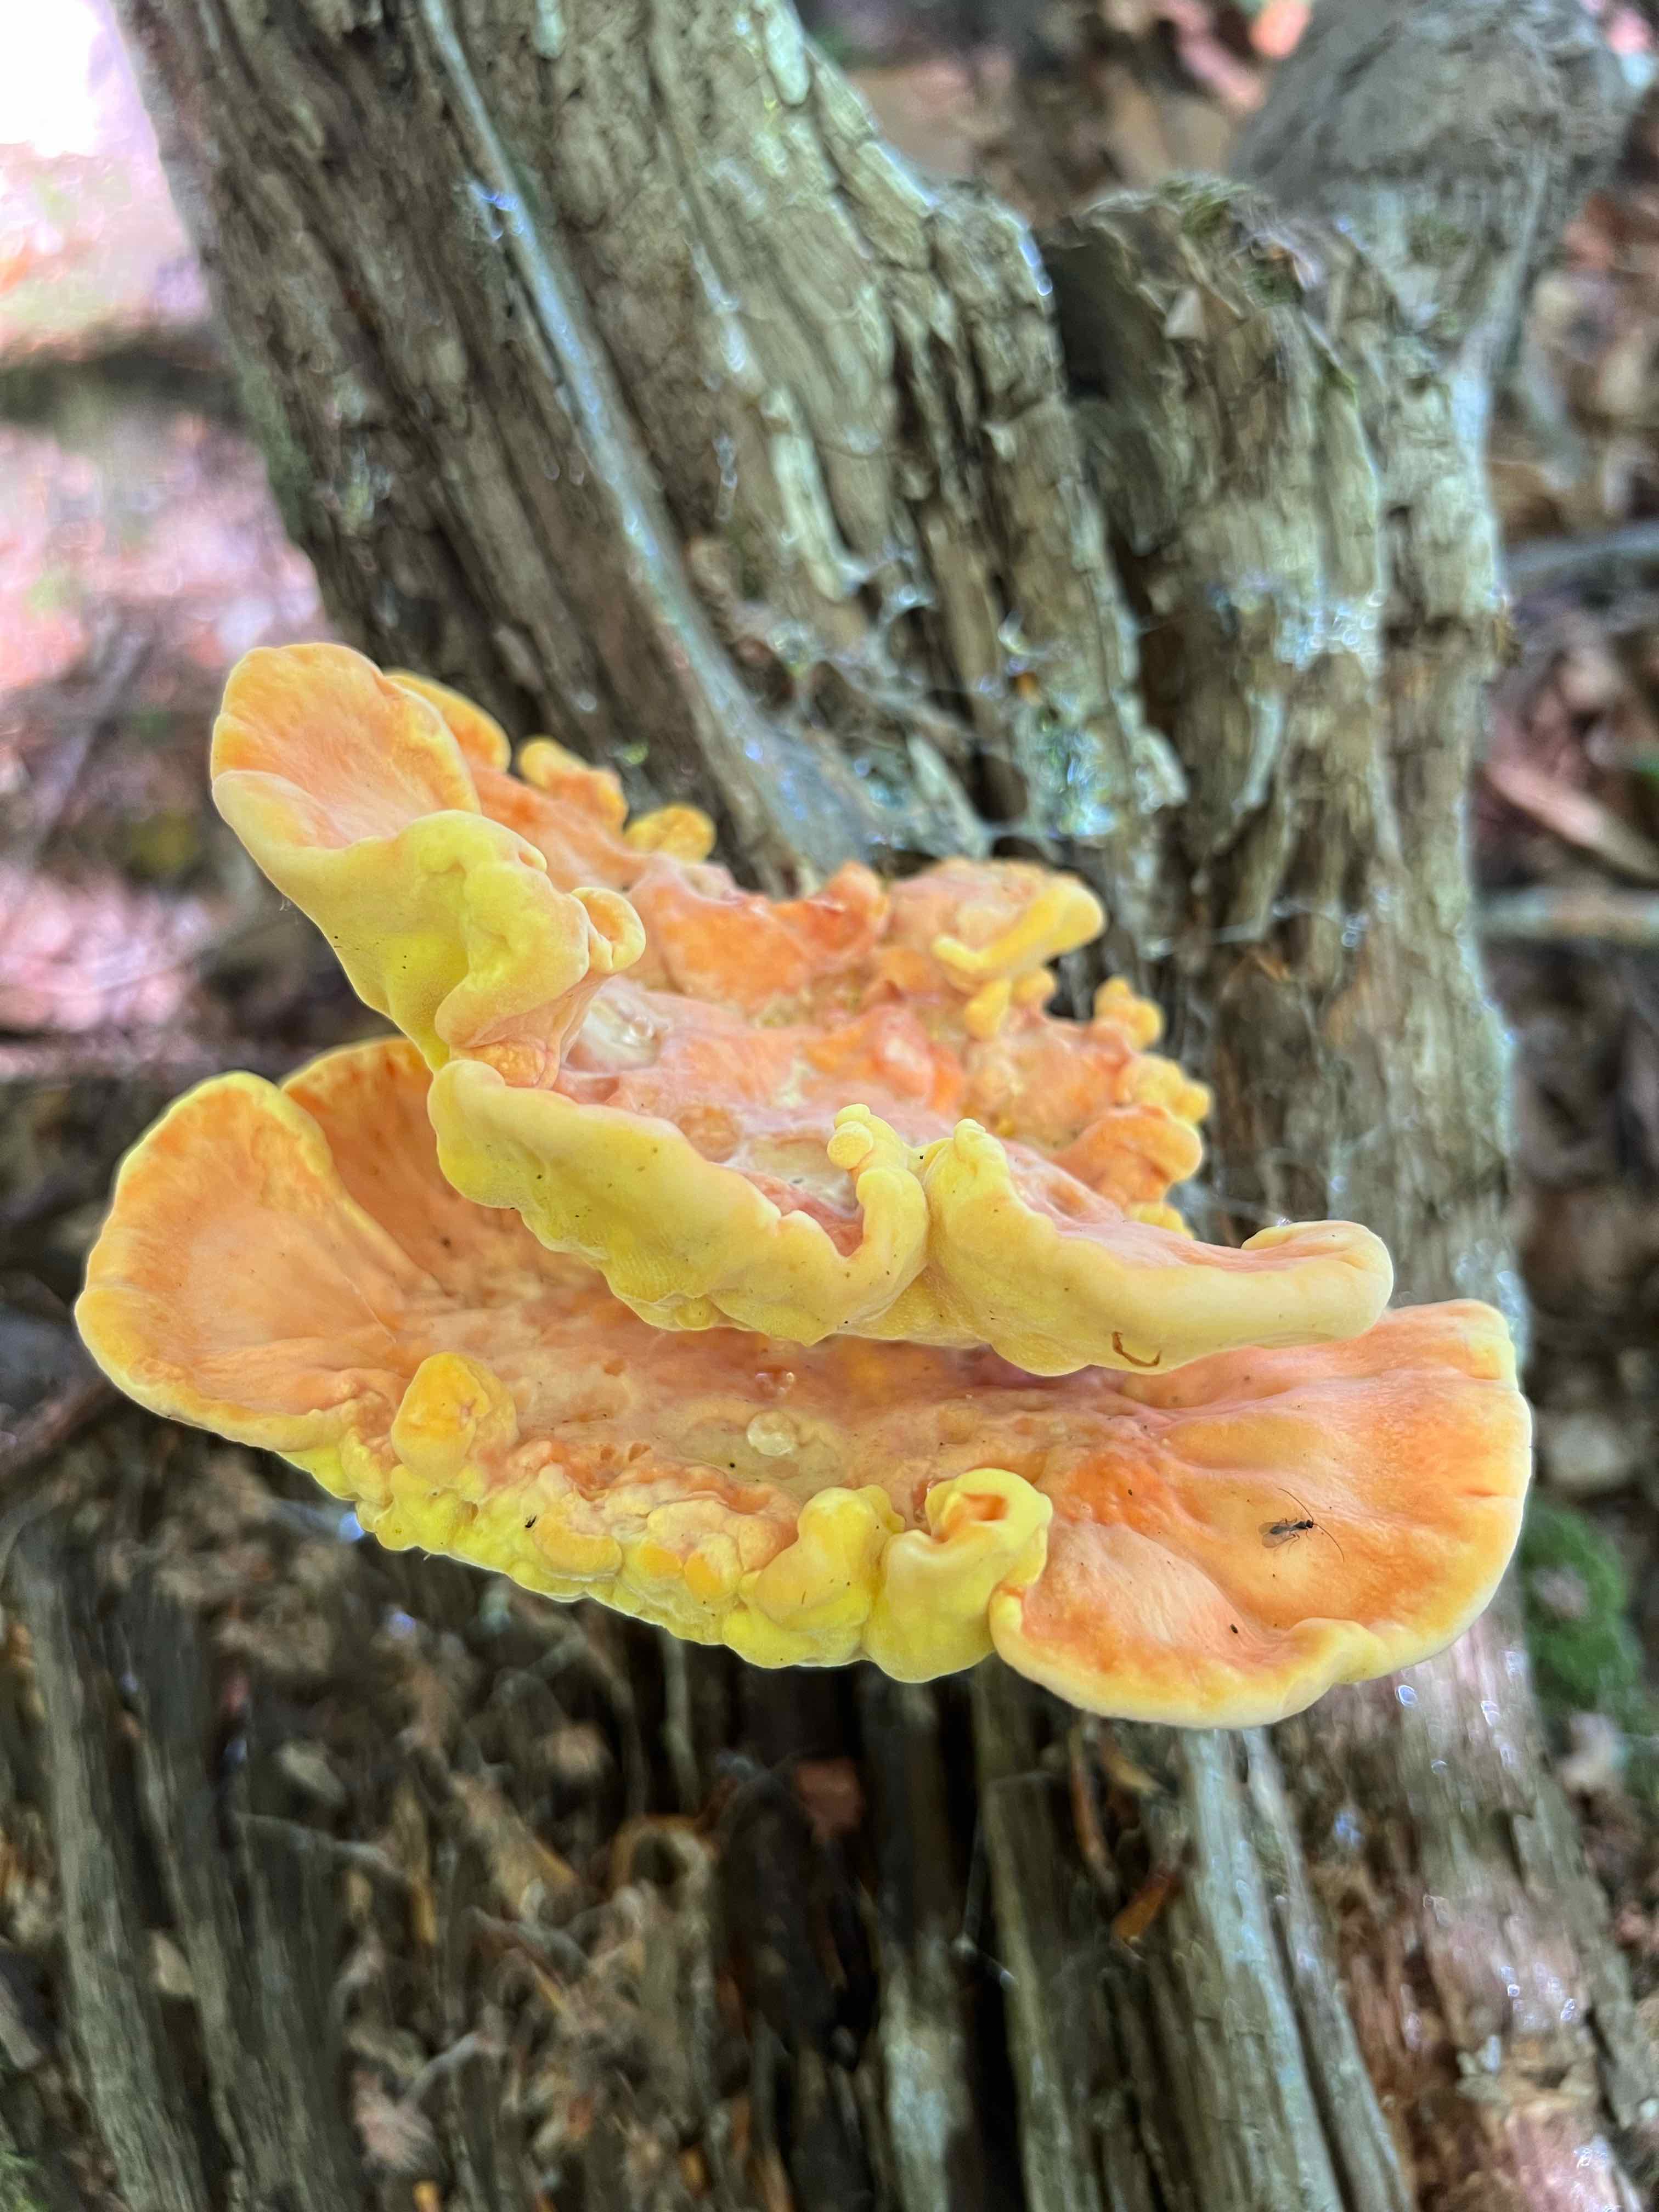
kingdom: Fungi
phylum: Basidiomycota
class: Agaricomycetes
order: Polyporales
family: Laetiporaceae
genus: Laetiporus
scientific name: Laetiporus sulphureus
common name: svovlporesvamp
